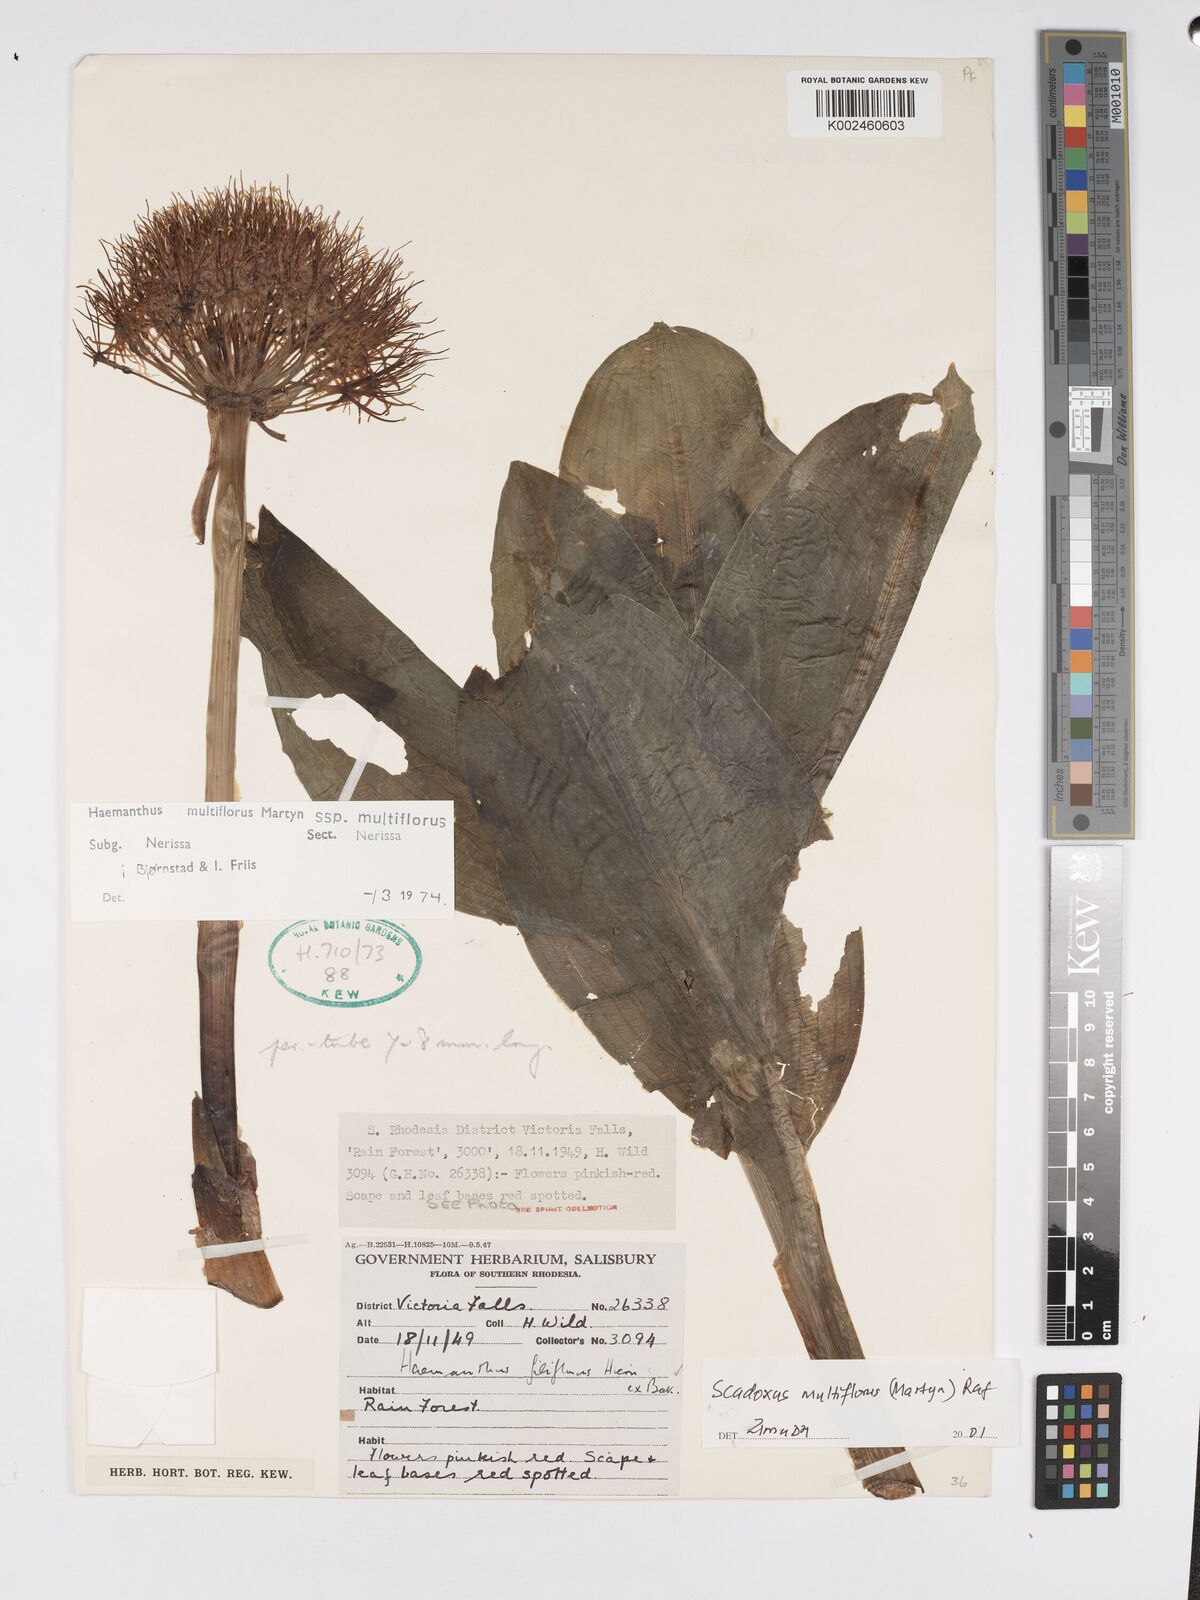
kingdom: Plantae
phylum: Tracheophyta
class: Liliopsida
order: Asparagales
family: Amaryllidaceae
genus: Scadoxus
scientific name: Scadoxus multiflorus
